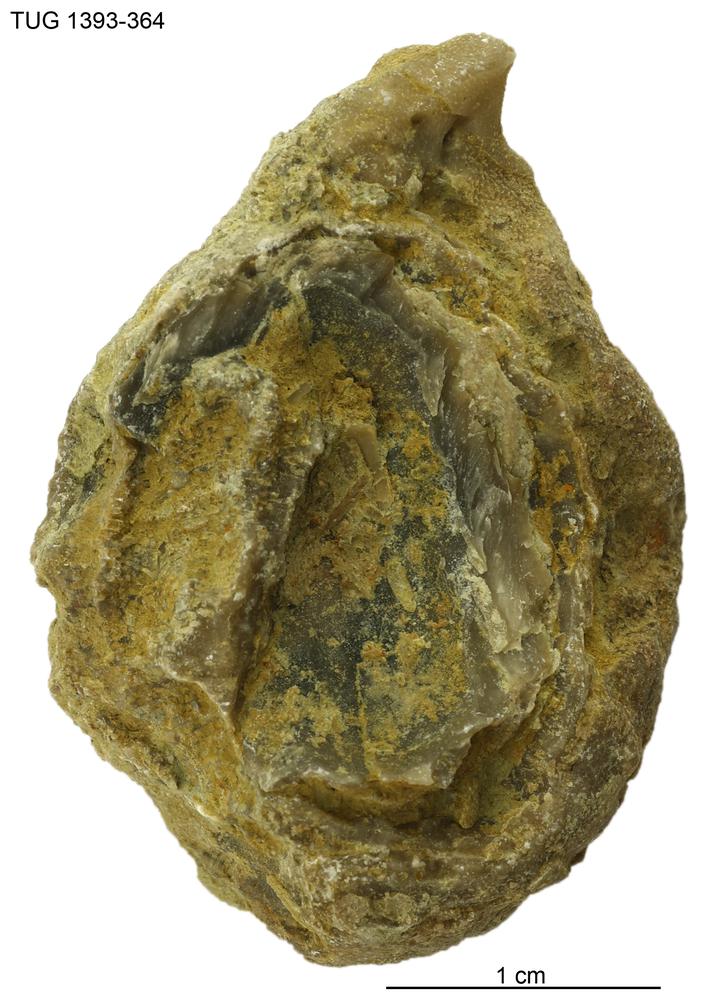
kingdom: Animalia
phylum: Bryozoa
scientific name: Bryozoa
